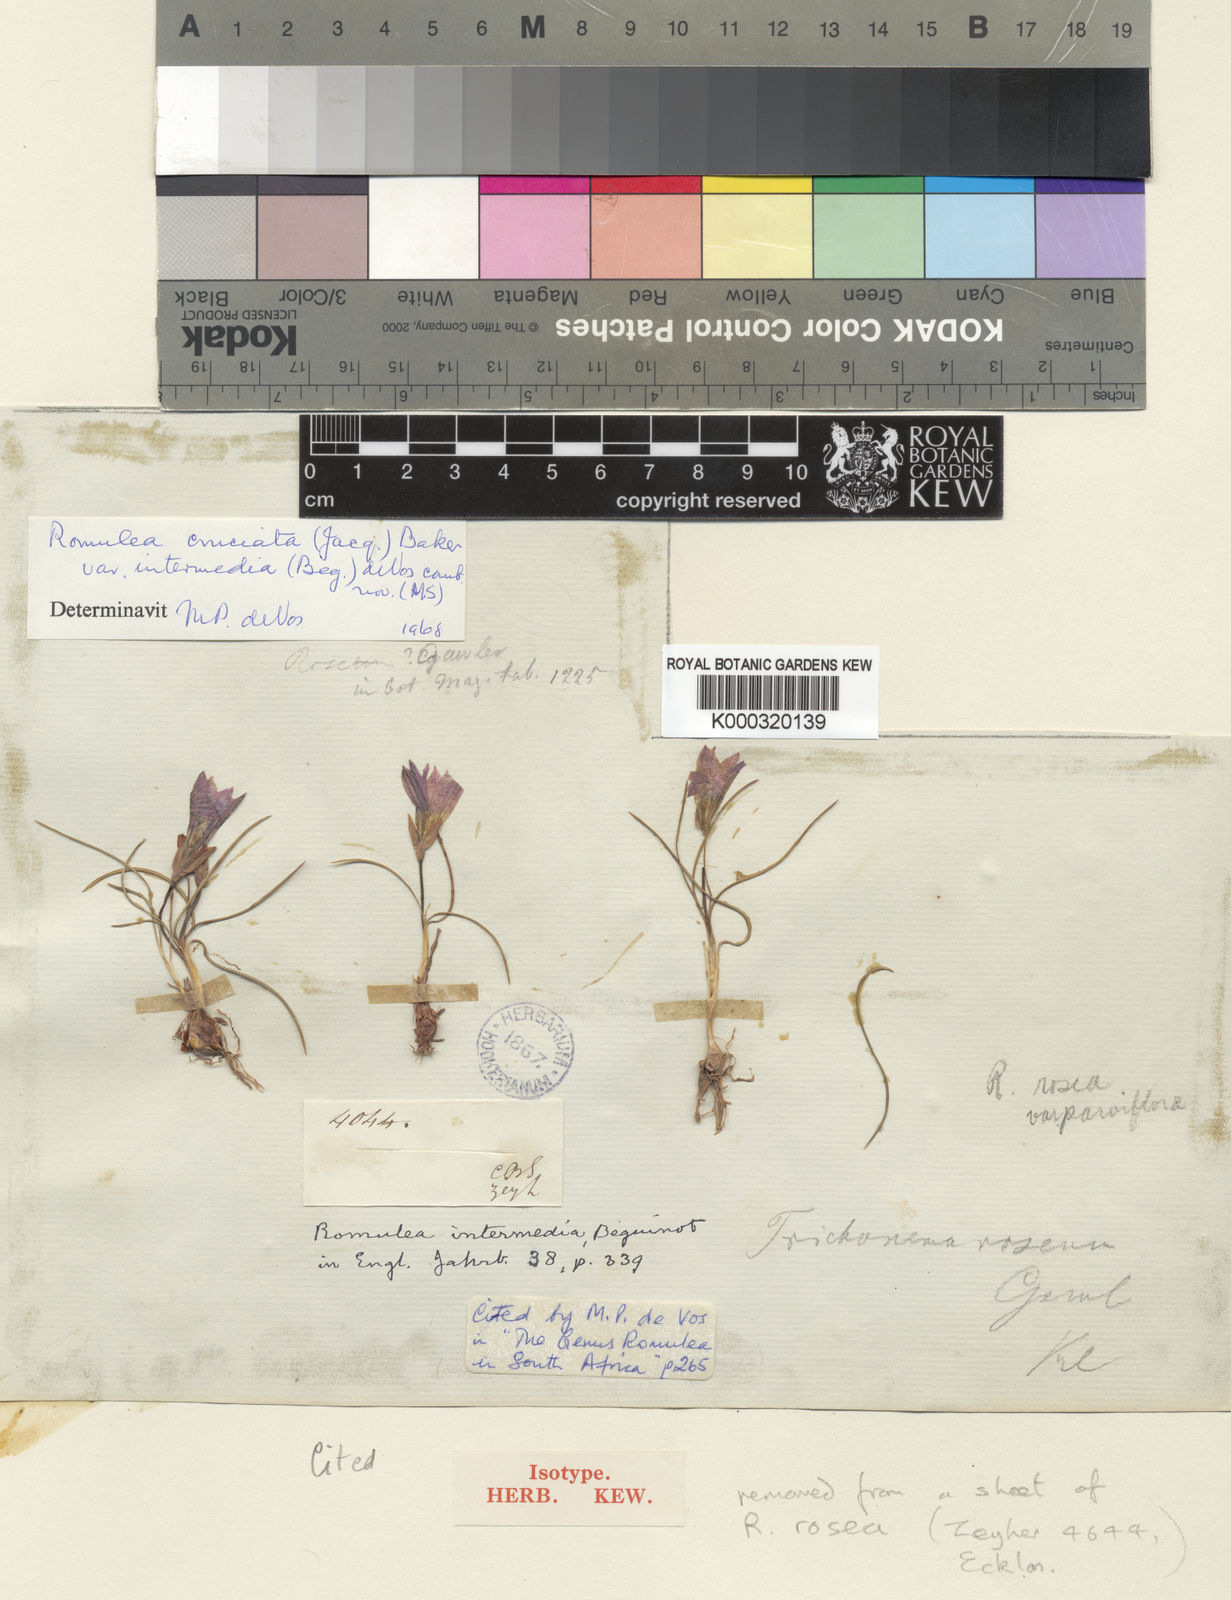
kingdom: Plantae
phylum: Tracheophyta
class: Liliopsida
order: Asparagales
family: Iridaceae
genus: Romulea
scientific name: Romulea
